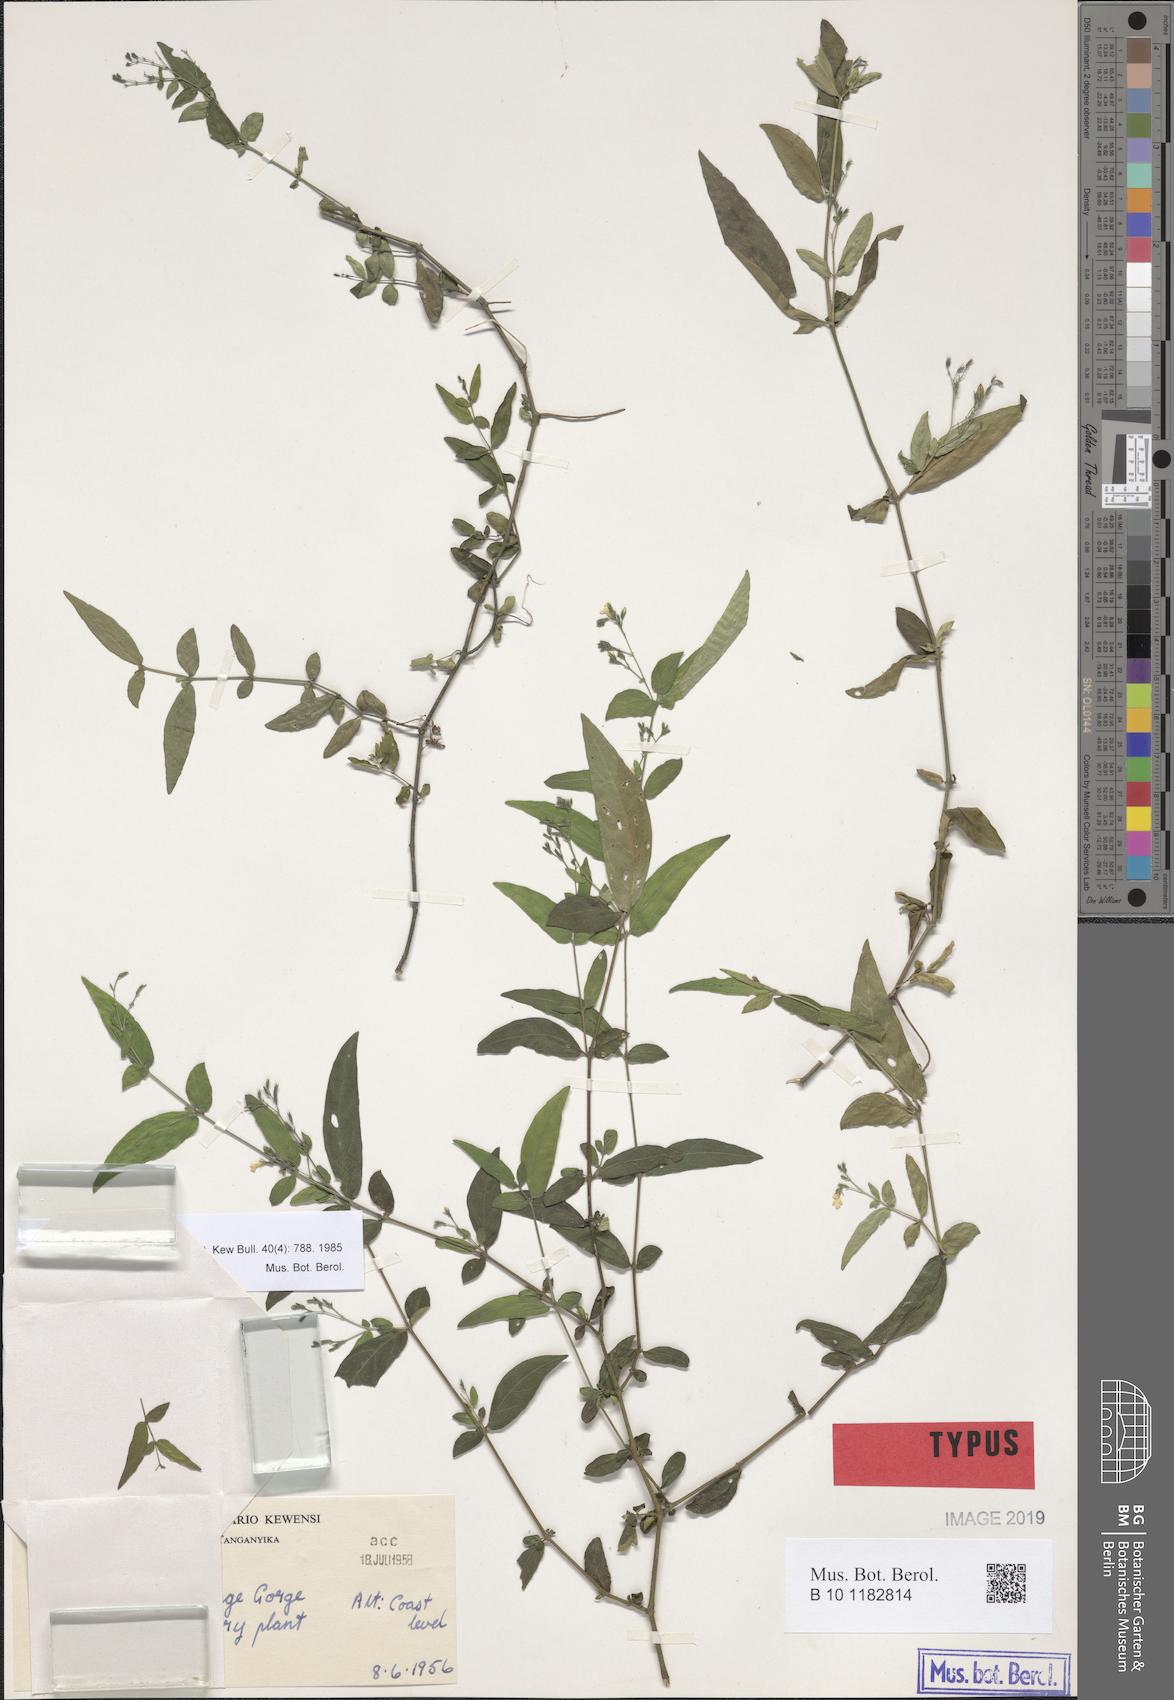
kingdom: Plantae
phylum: Tracheophyta
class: Magnoliopsida
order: Lamiales
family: Acanthaceae
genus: Isoglossa
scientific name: Isoglossa anisophylla
